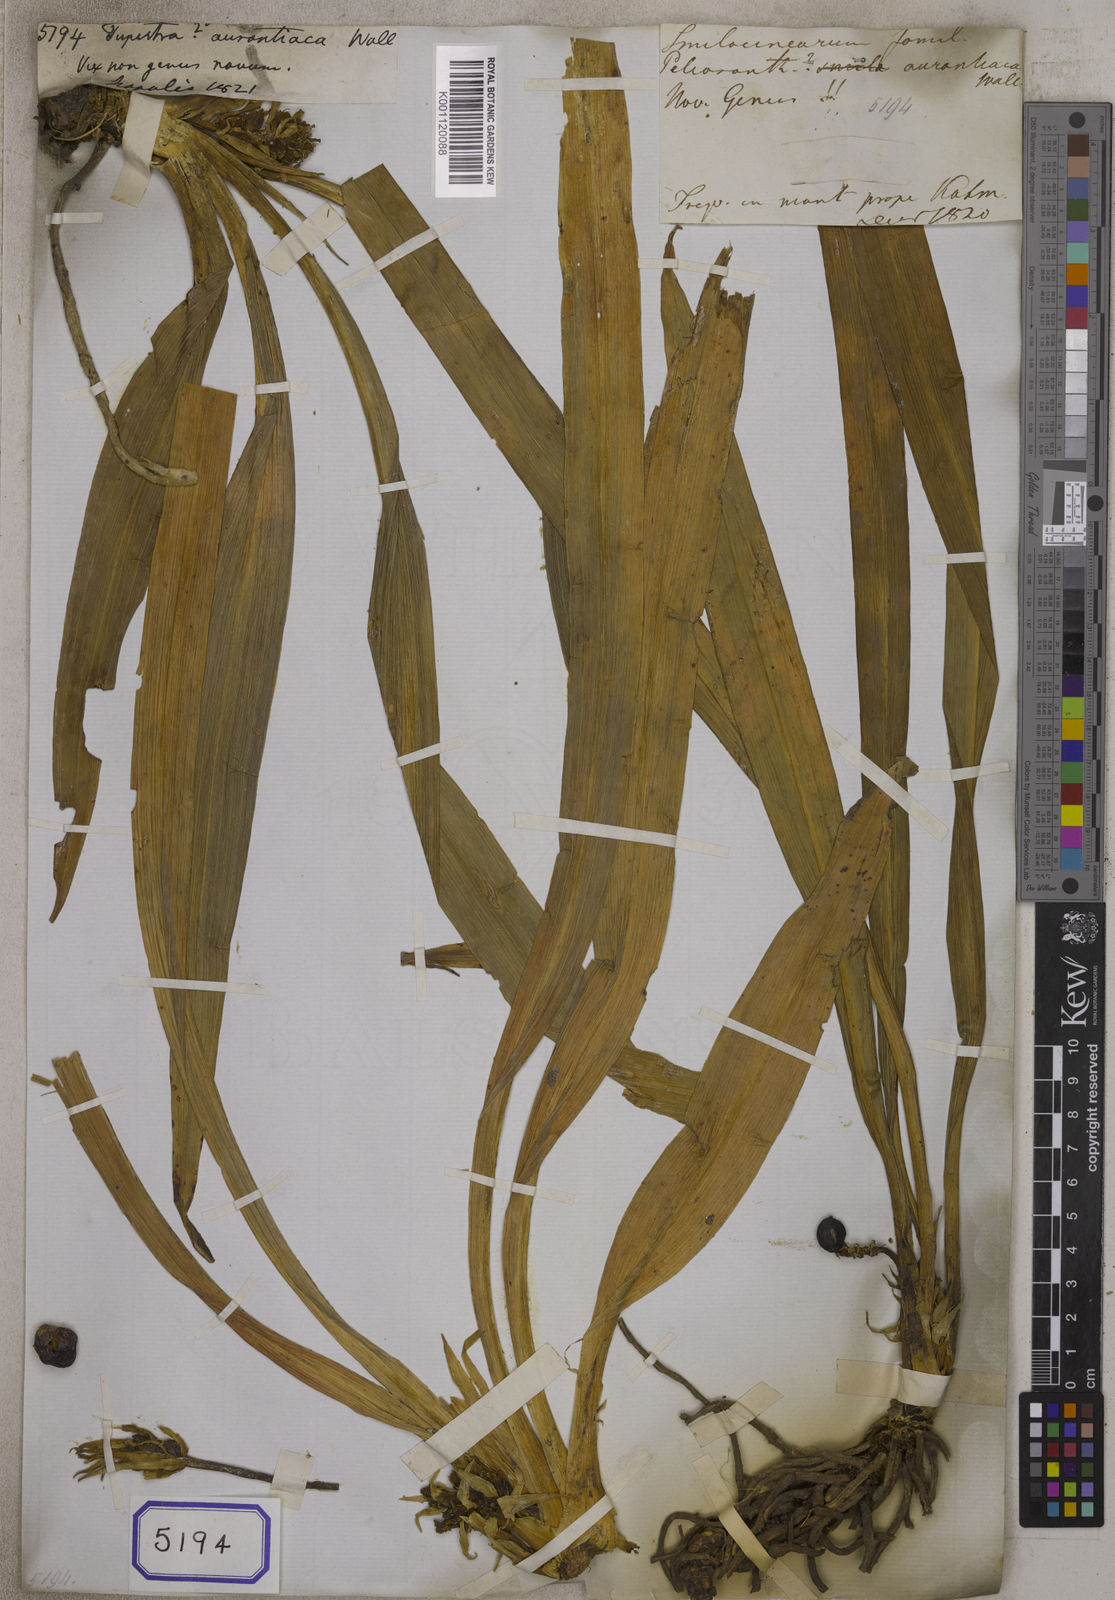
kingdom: Plantae
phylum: Tracheophyta
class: Liliopsida
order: Asparagales
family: Asparagaceae
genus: Tupistra
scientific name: Tupistra
